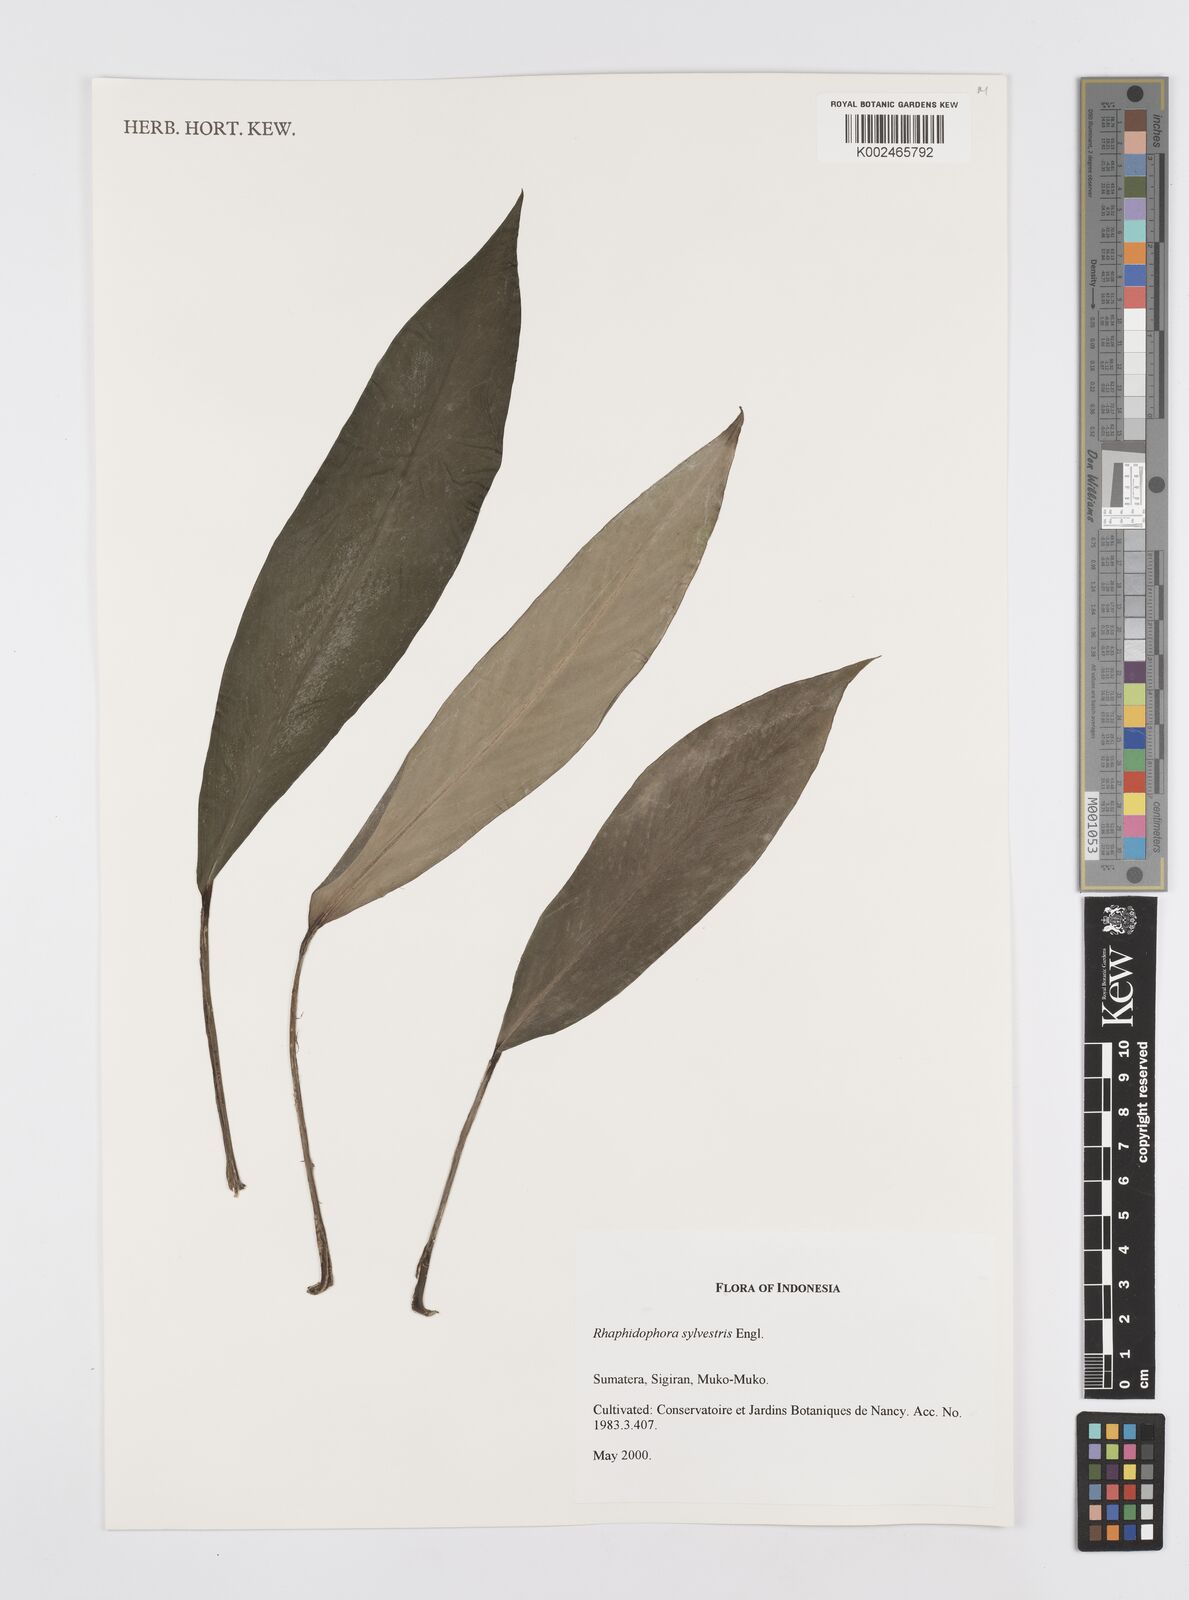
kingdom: Plantae
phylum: Tracheophyta
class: Liliopsida
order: Alismatales
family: Araceae
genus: Rhaphidophora
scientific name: Rhaphidophora sylvestris
